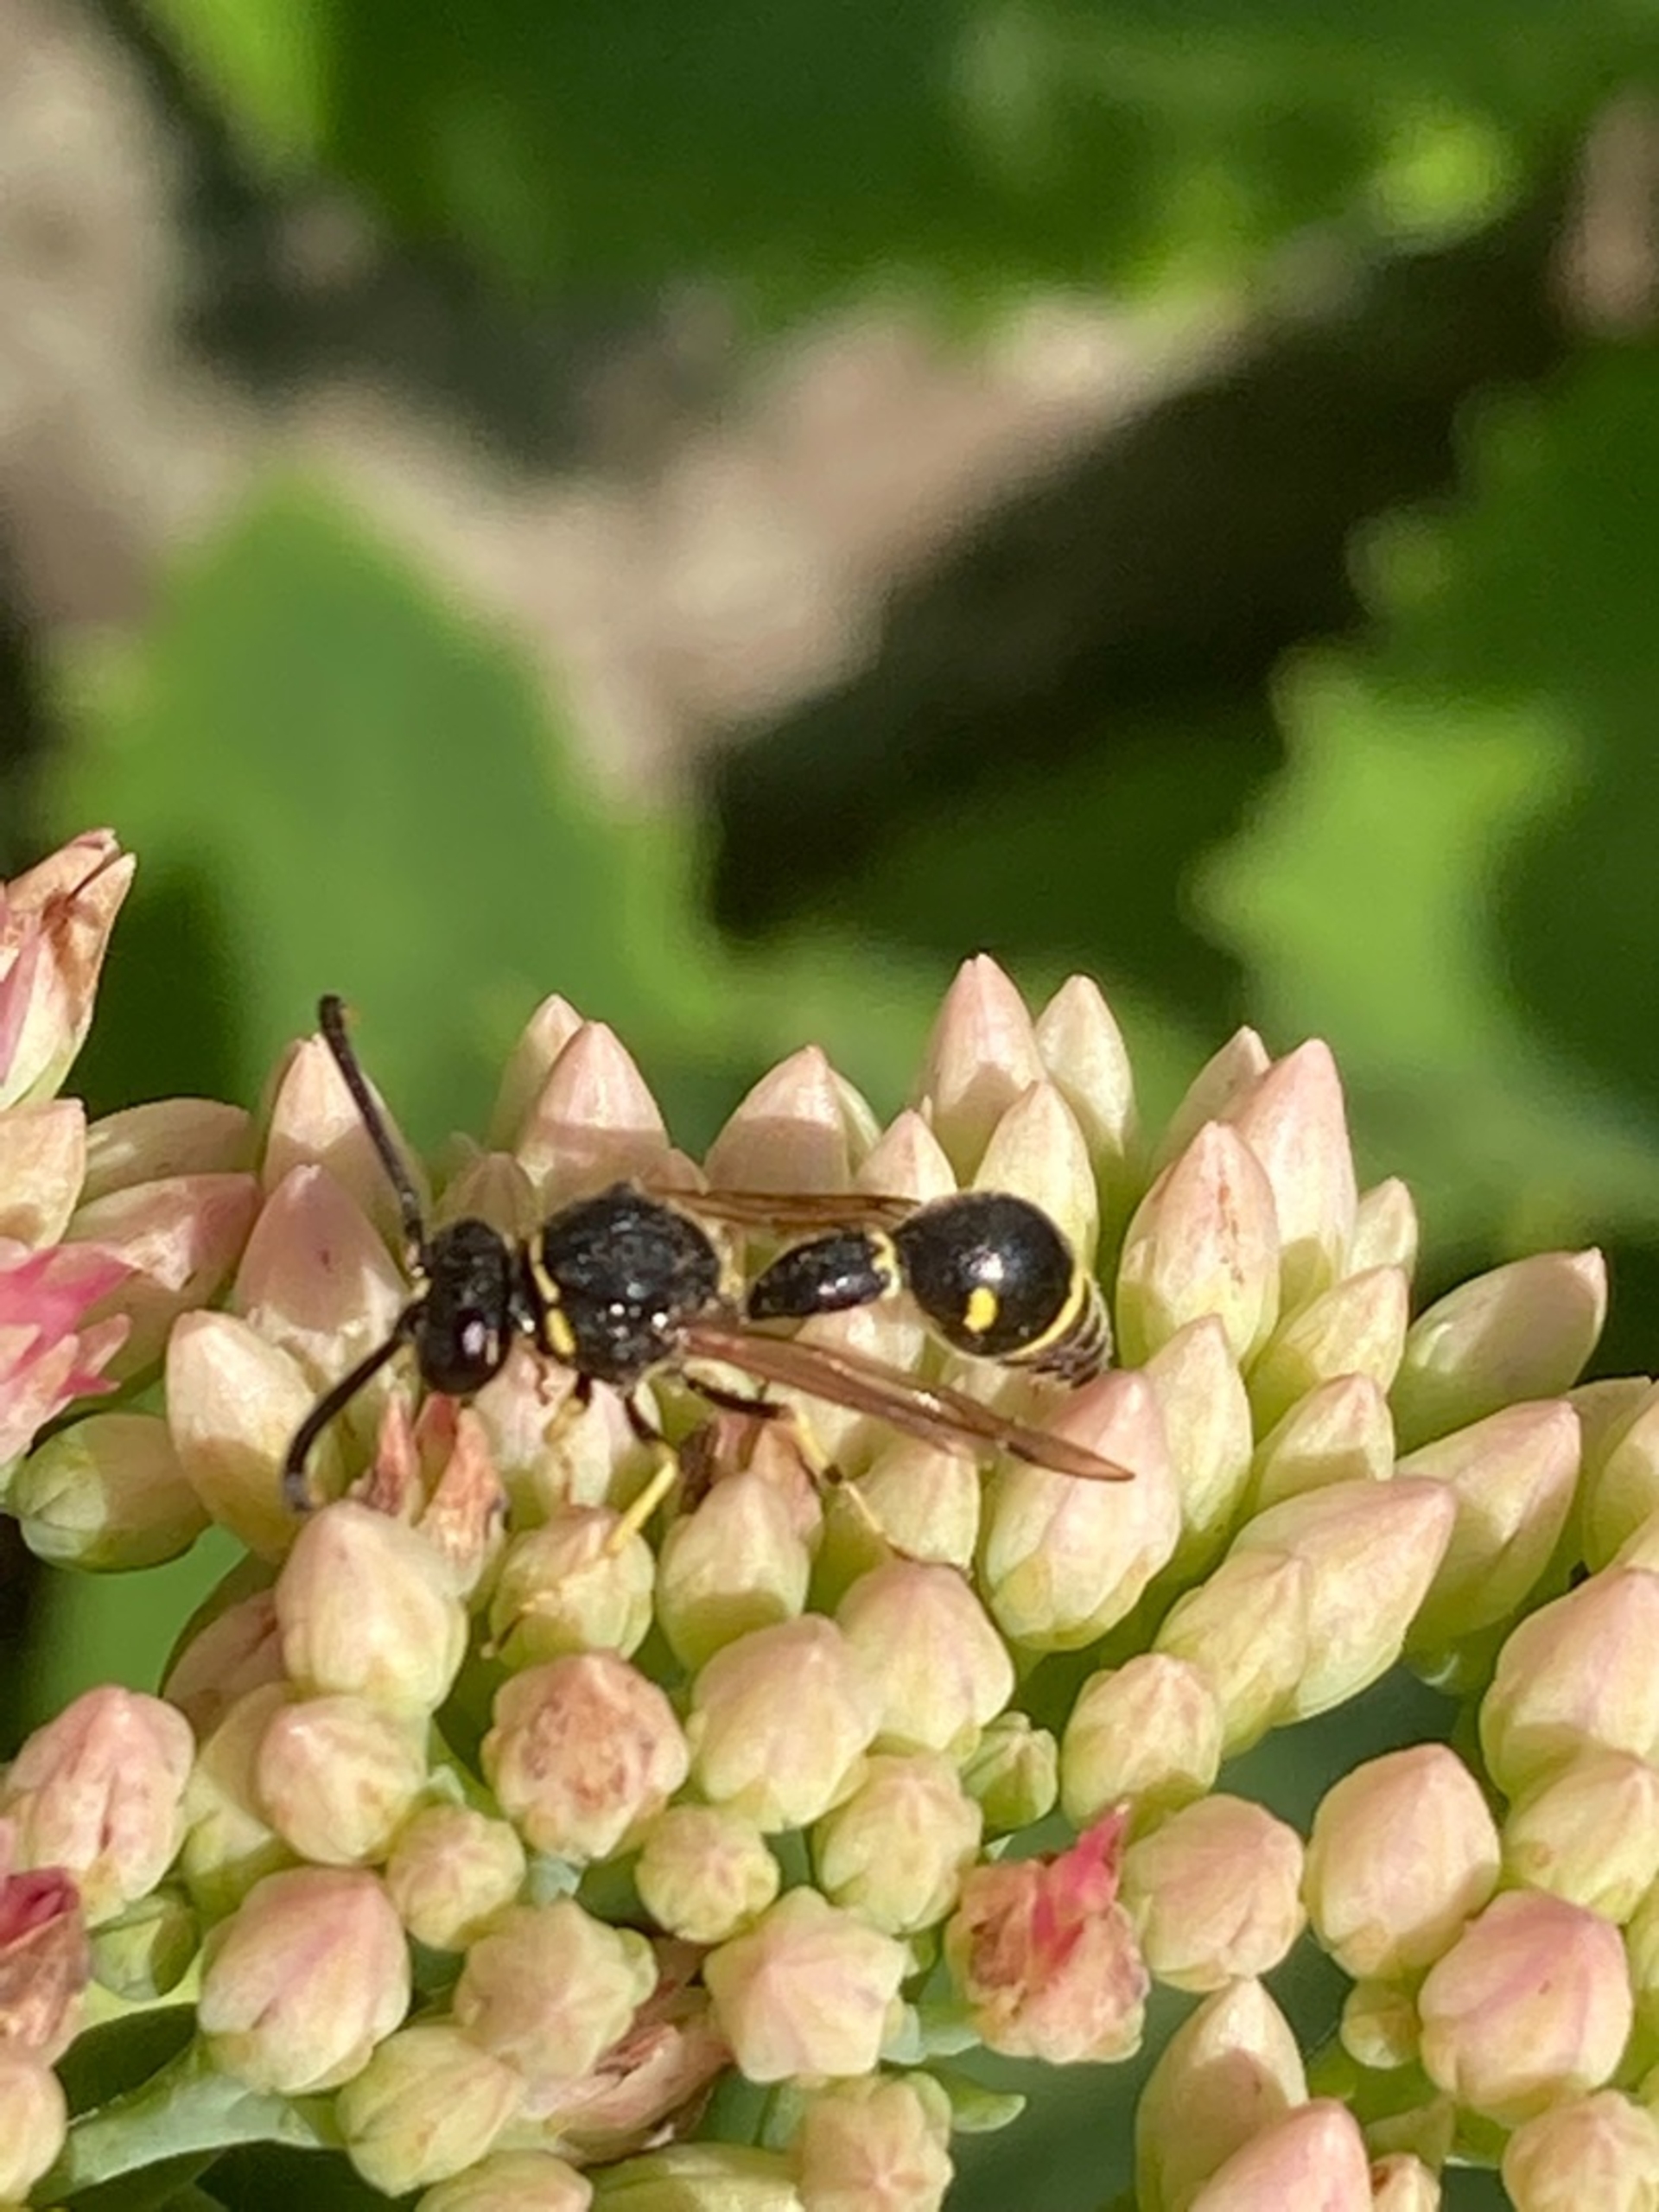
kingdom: Animalia
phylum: Arthropoda
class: Insecta
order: Hymenoptera
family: Vespidae
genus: Eumenes
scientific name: Eumenes
